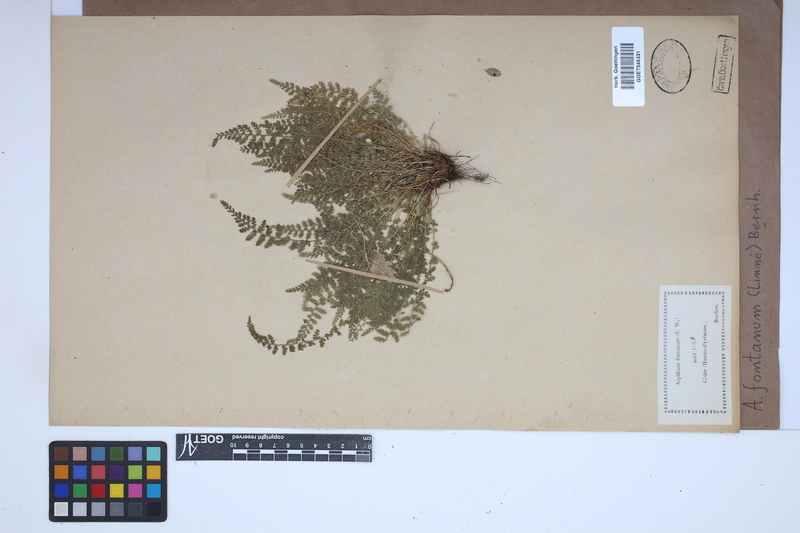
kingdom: Plantae
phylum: Tracheophyta
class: Polypodiopsida
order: Polypodiales
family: Aspleniaceae
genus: Asplenium
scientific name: Asplenium fontanum
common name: Fountain spleenwort
